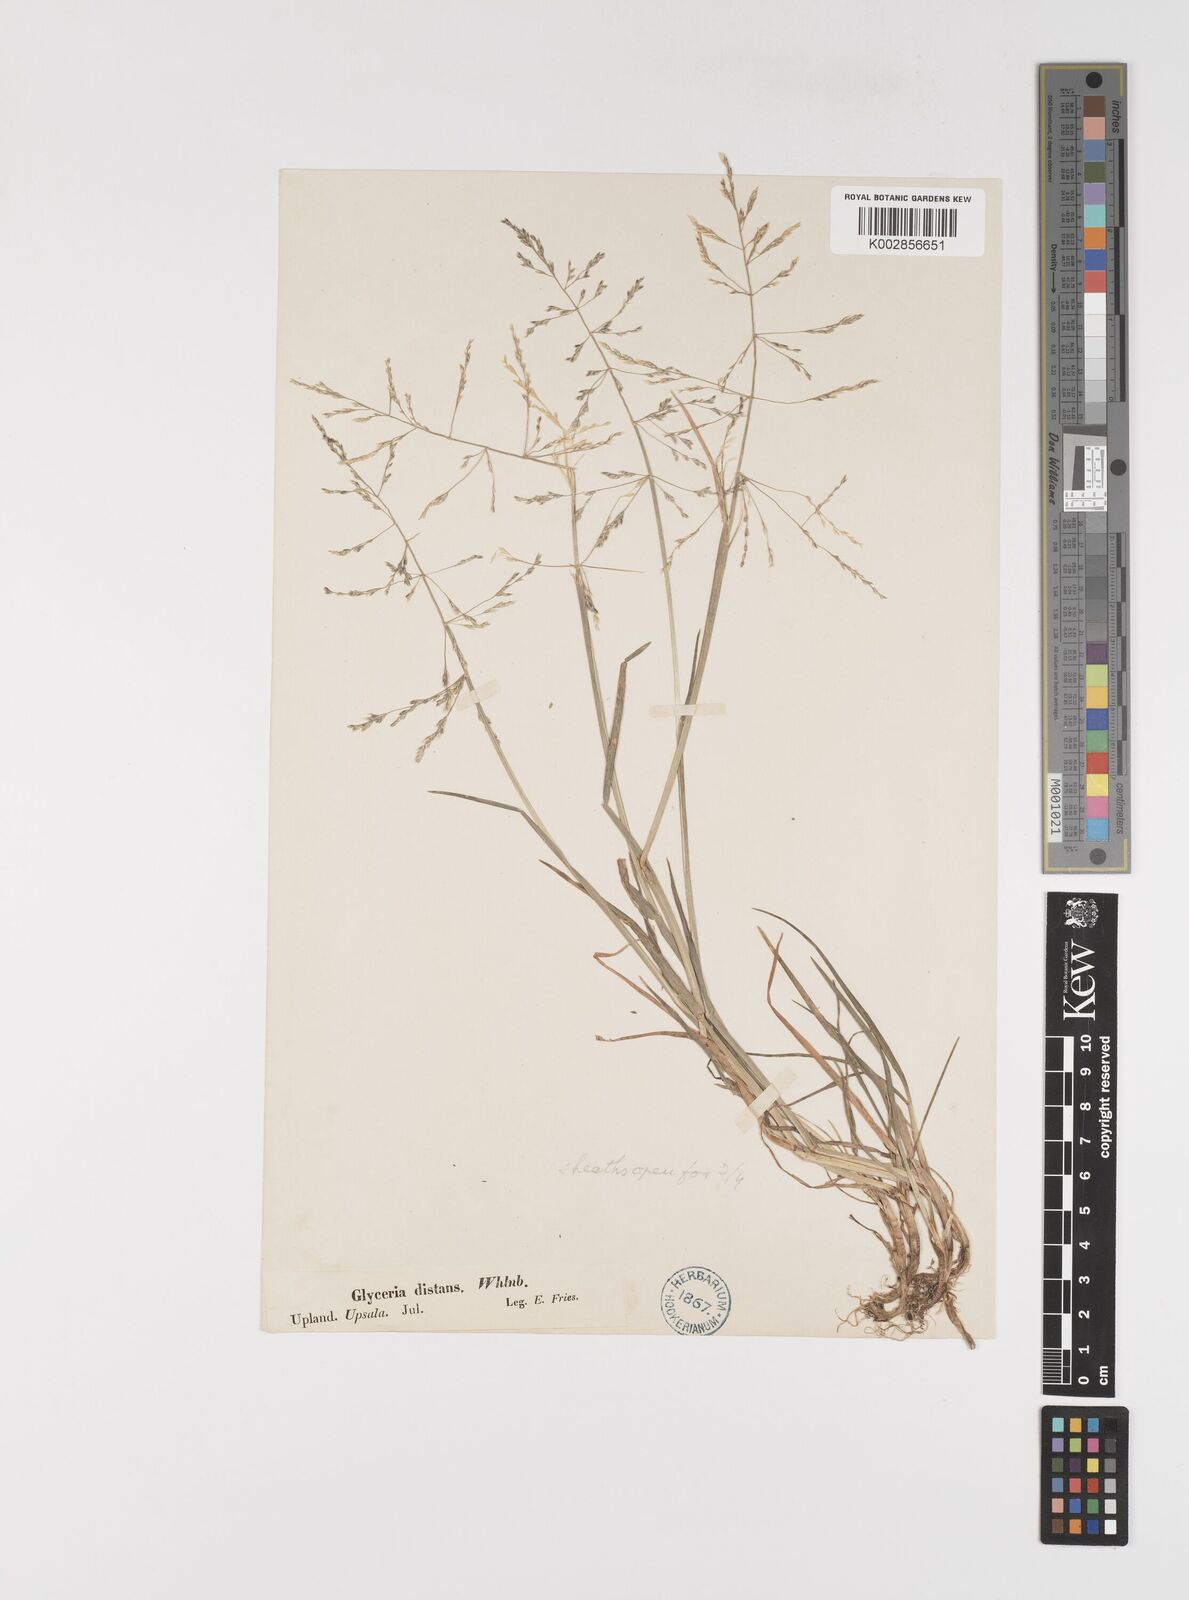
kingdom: Plantae
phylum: Tracheophyta
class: Liliopsida
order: Poales
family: Poaceae
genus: Puccinellia
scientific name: Puccinellia
